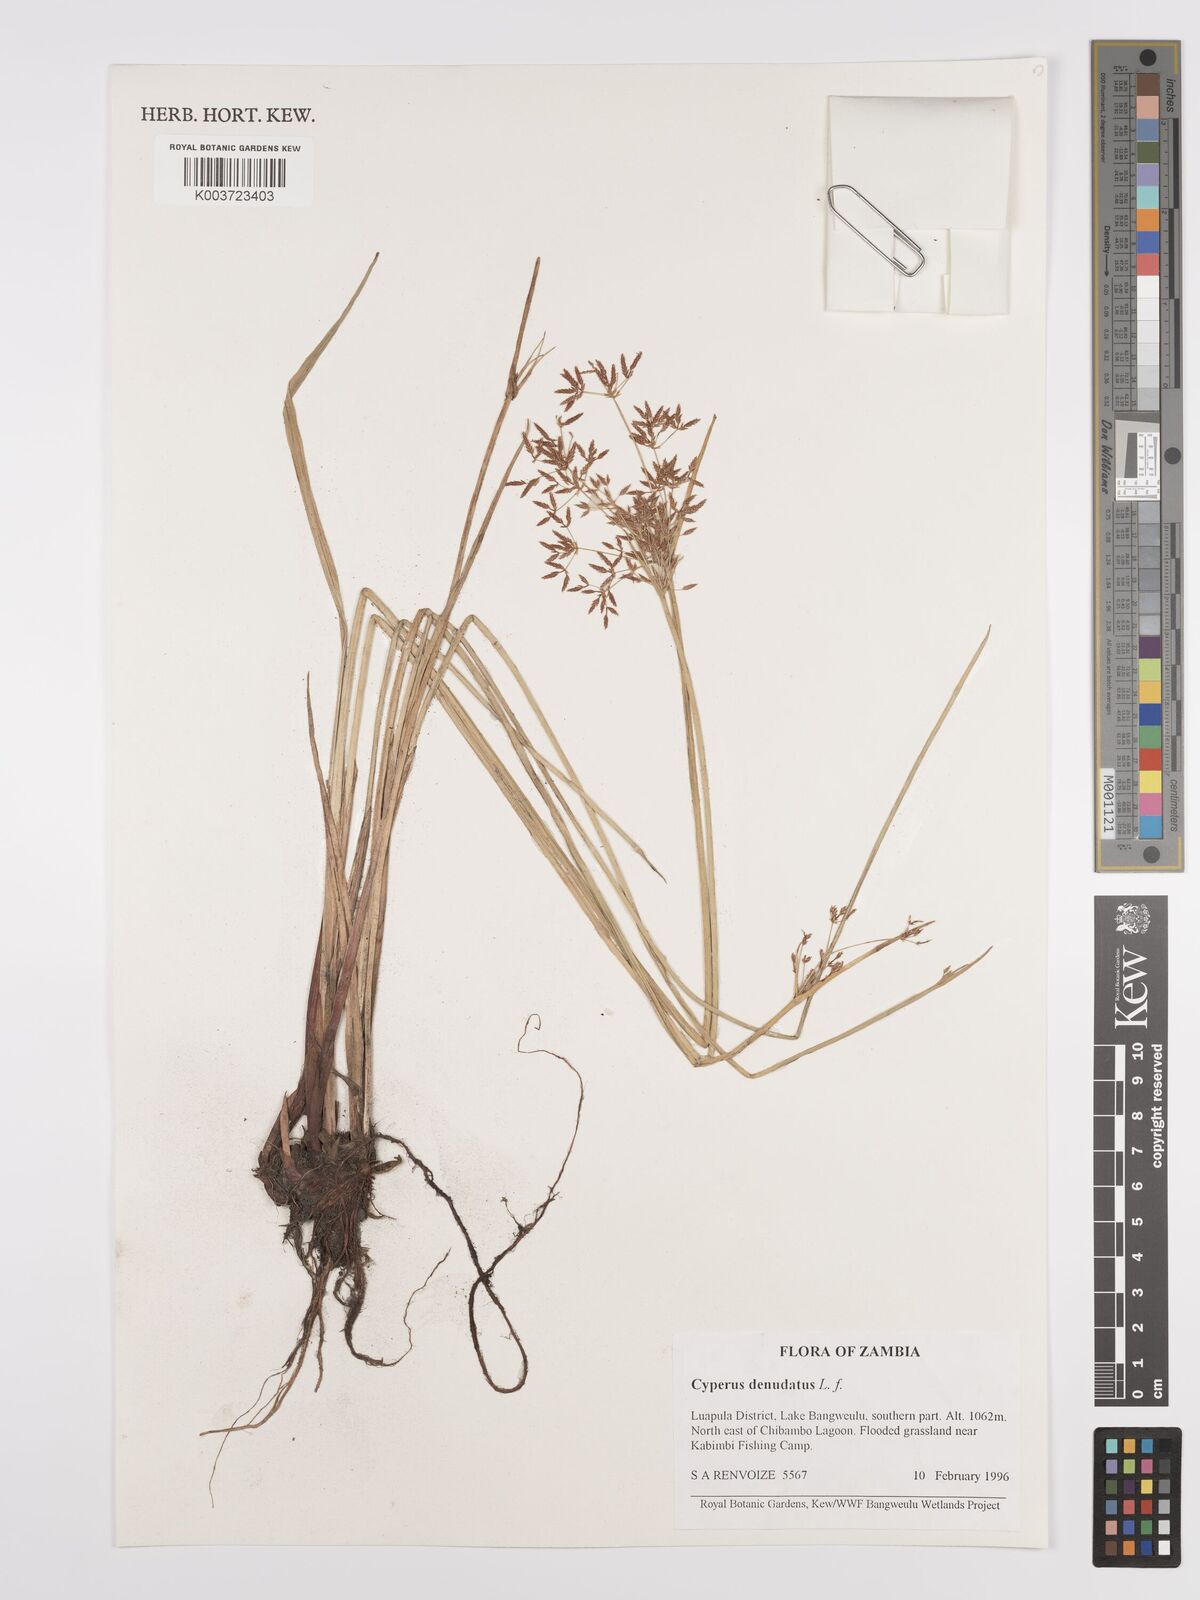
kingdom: Plantae
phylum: Tracheophyta
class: Liliopsida
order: Poales
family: Cyperaceae
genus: Cyperus
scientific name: Cyperus denudatus
